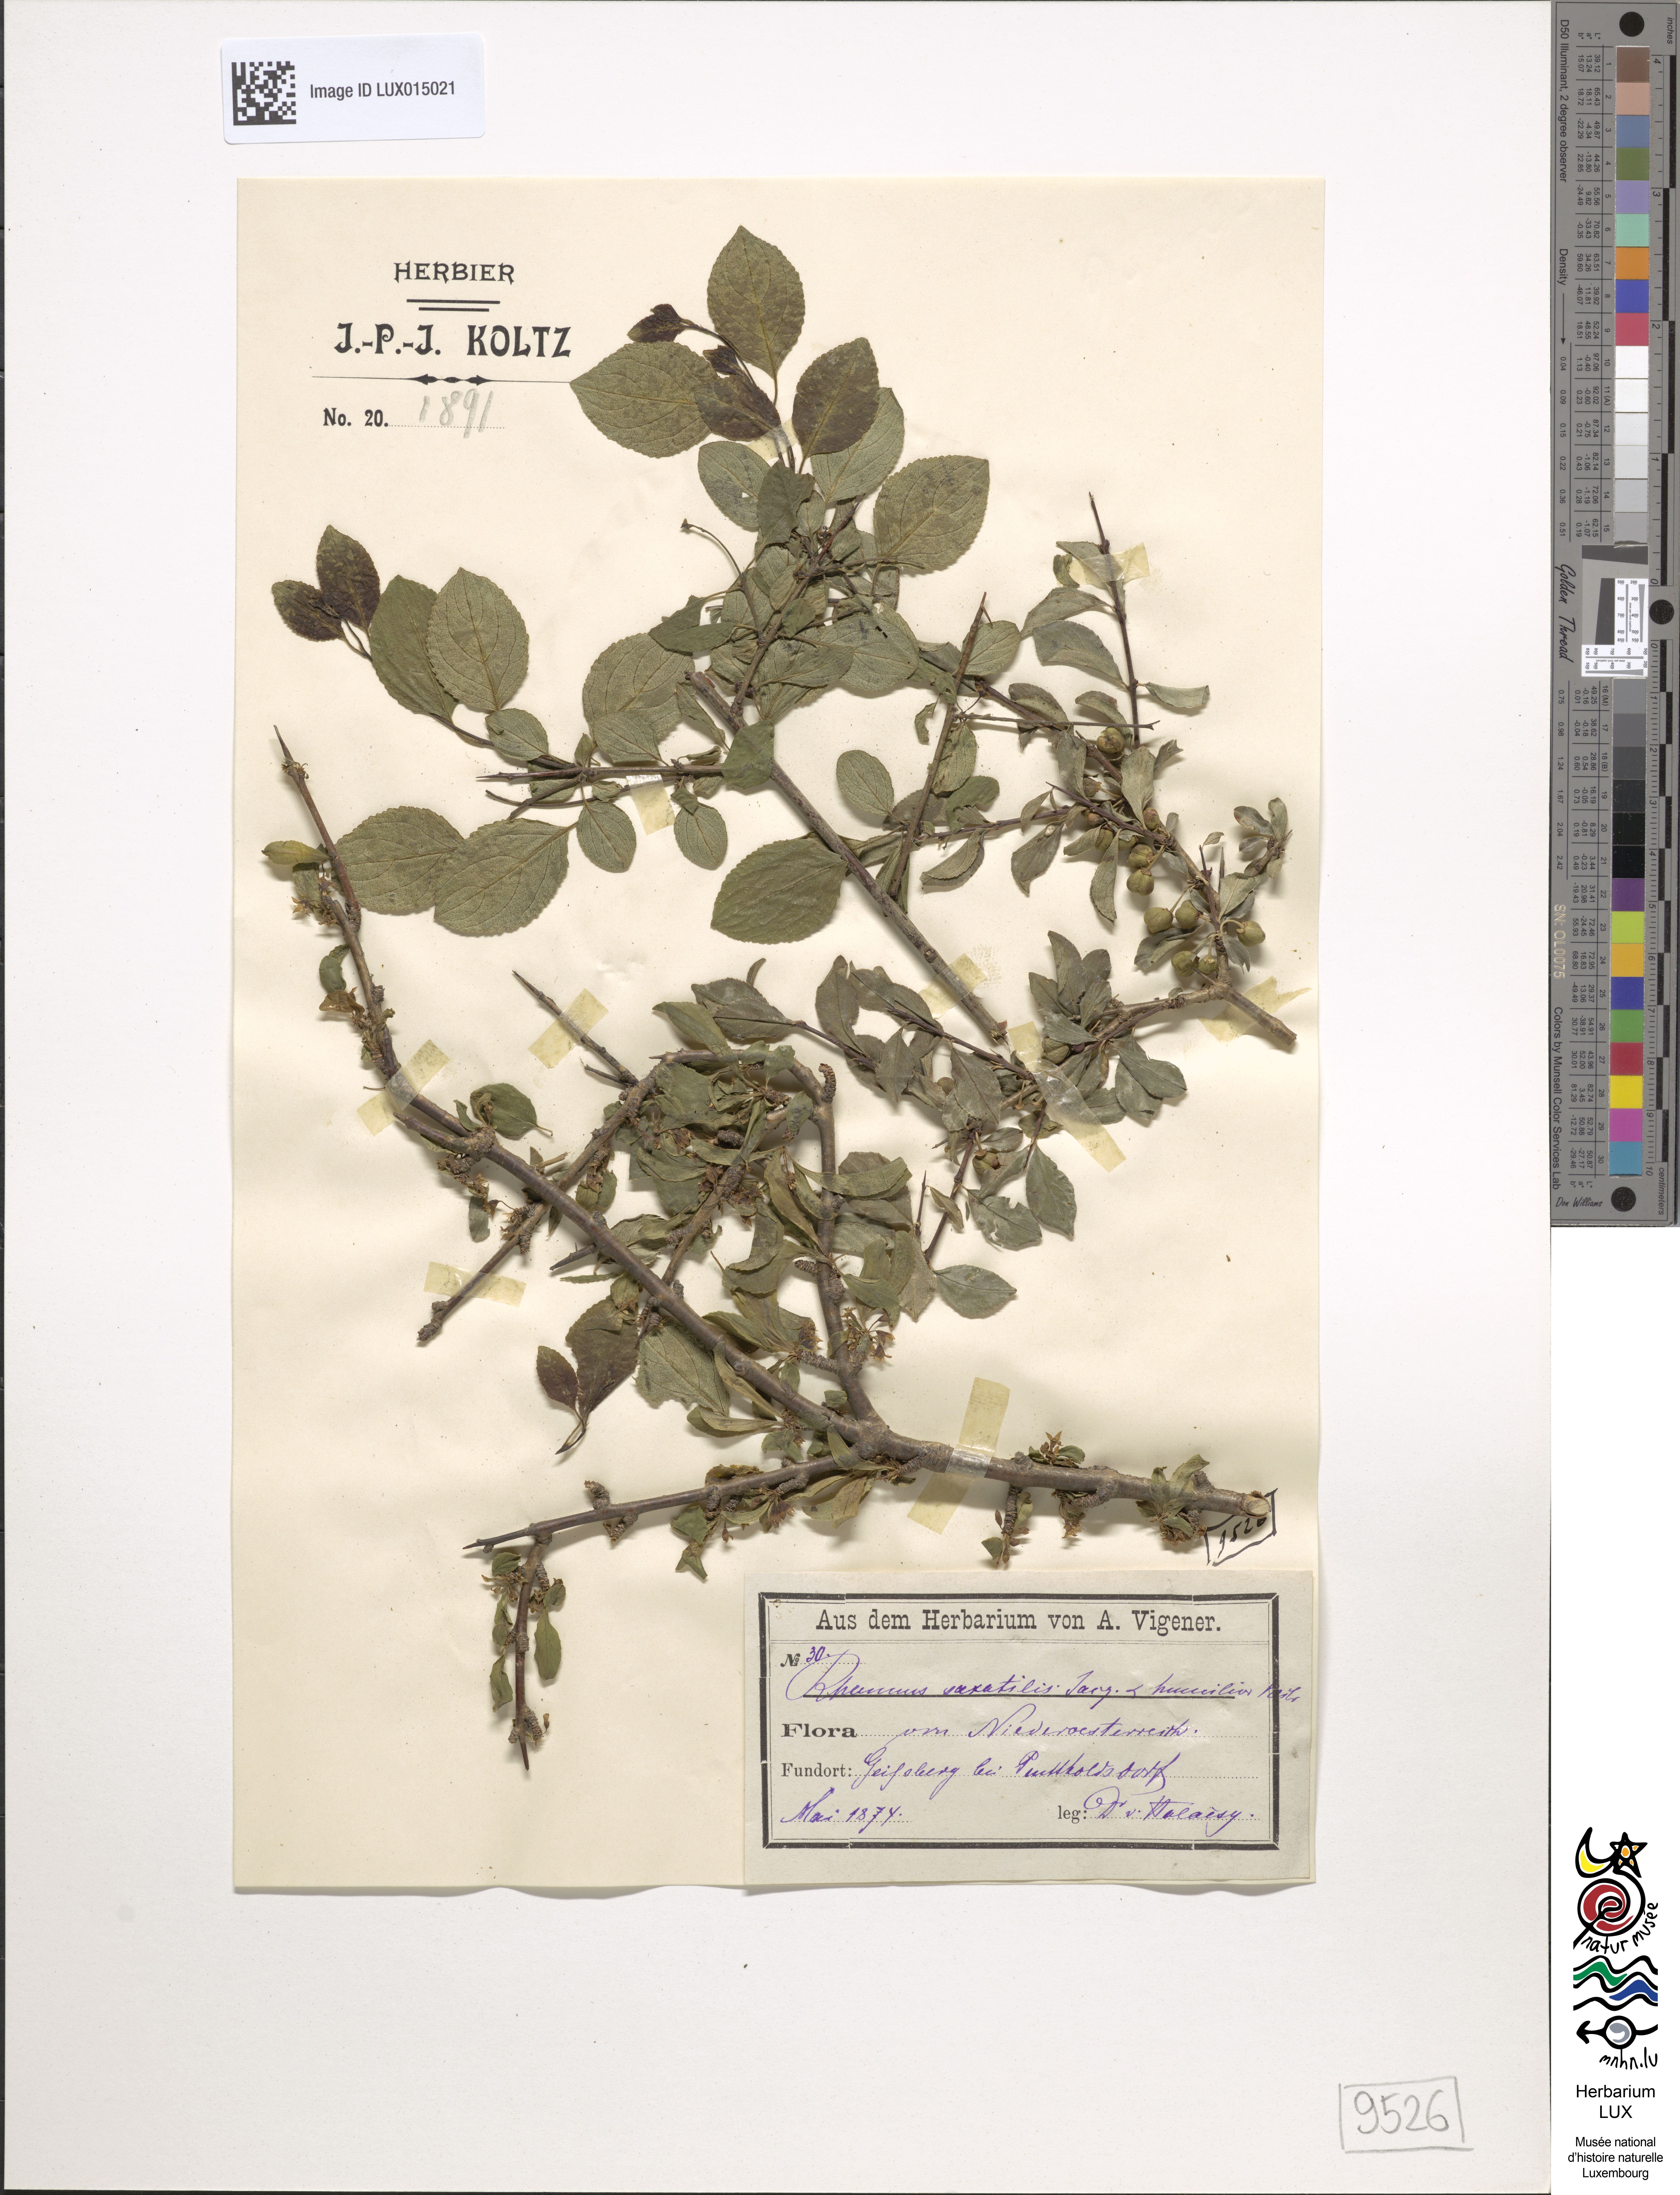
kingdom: Plantae
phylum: Tracheophyta
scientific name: Tracheophyta
